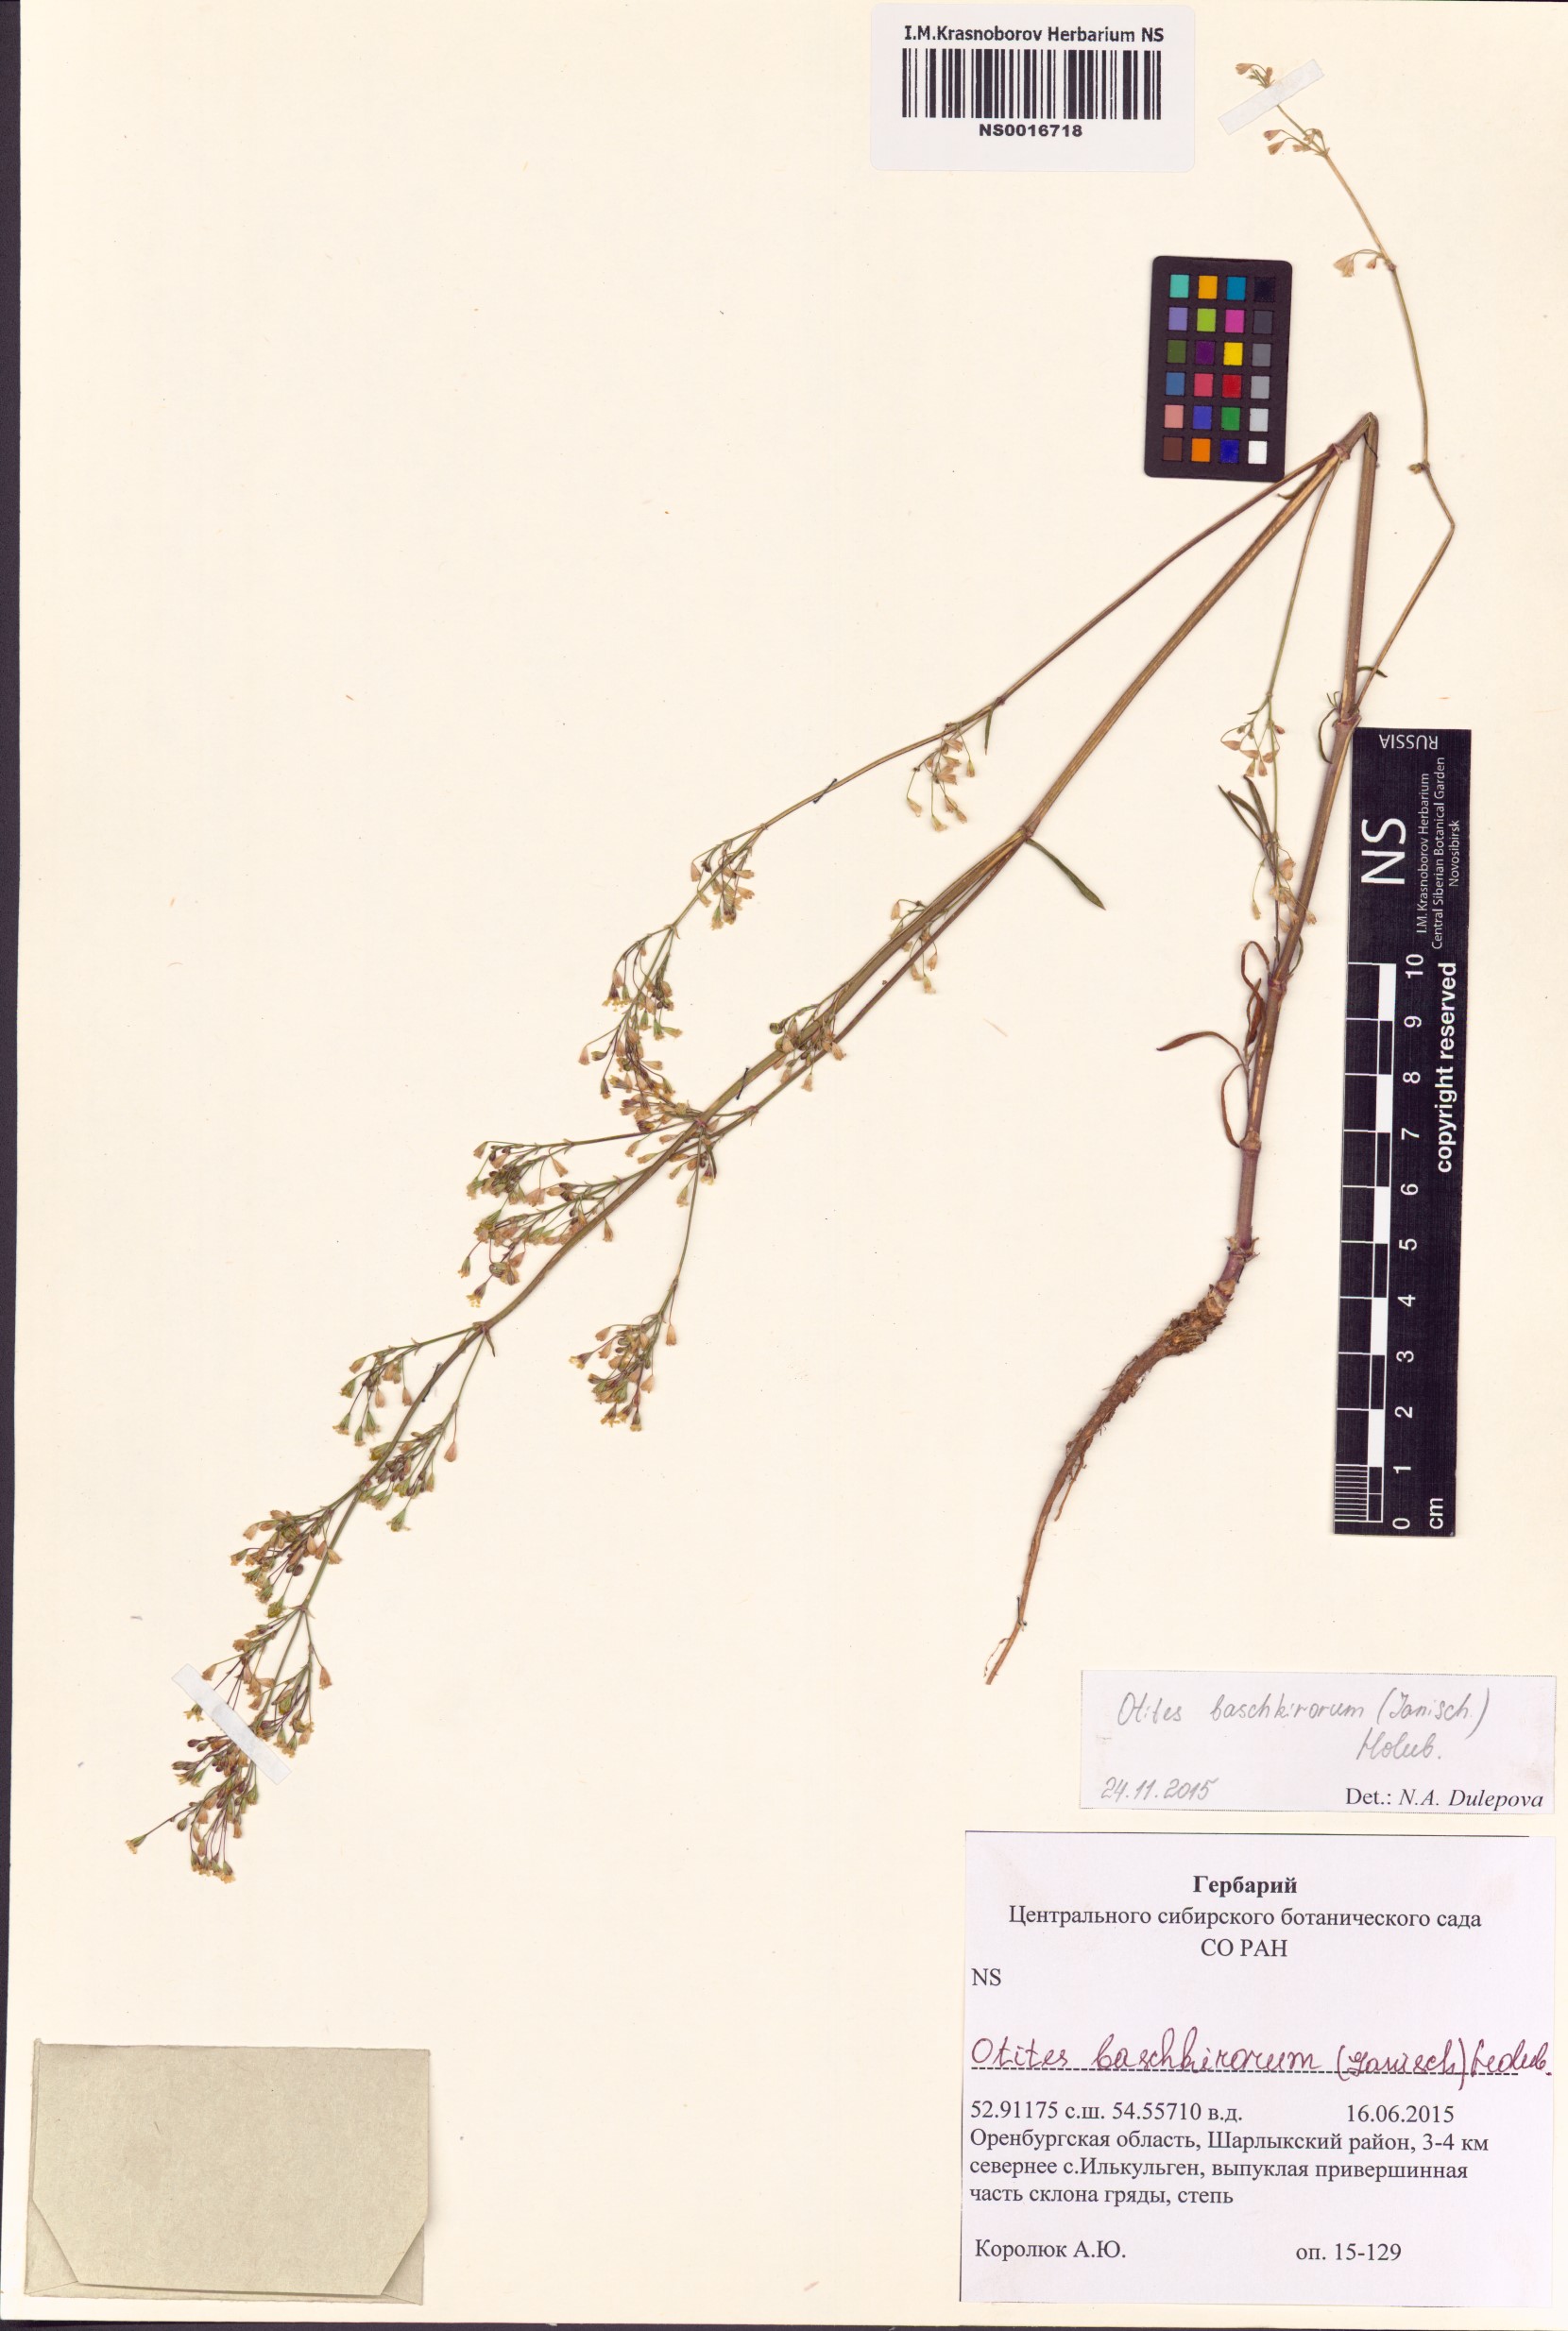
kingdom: Plantae
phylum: Tracheophyta
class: Magnoliopsida
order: Caryophyllales
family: Caryophyllaceae
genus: Silene
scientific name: Silene baschkirorum
